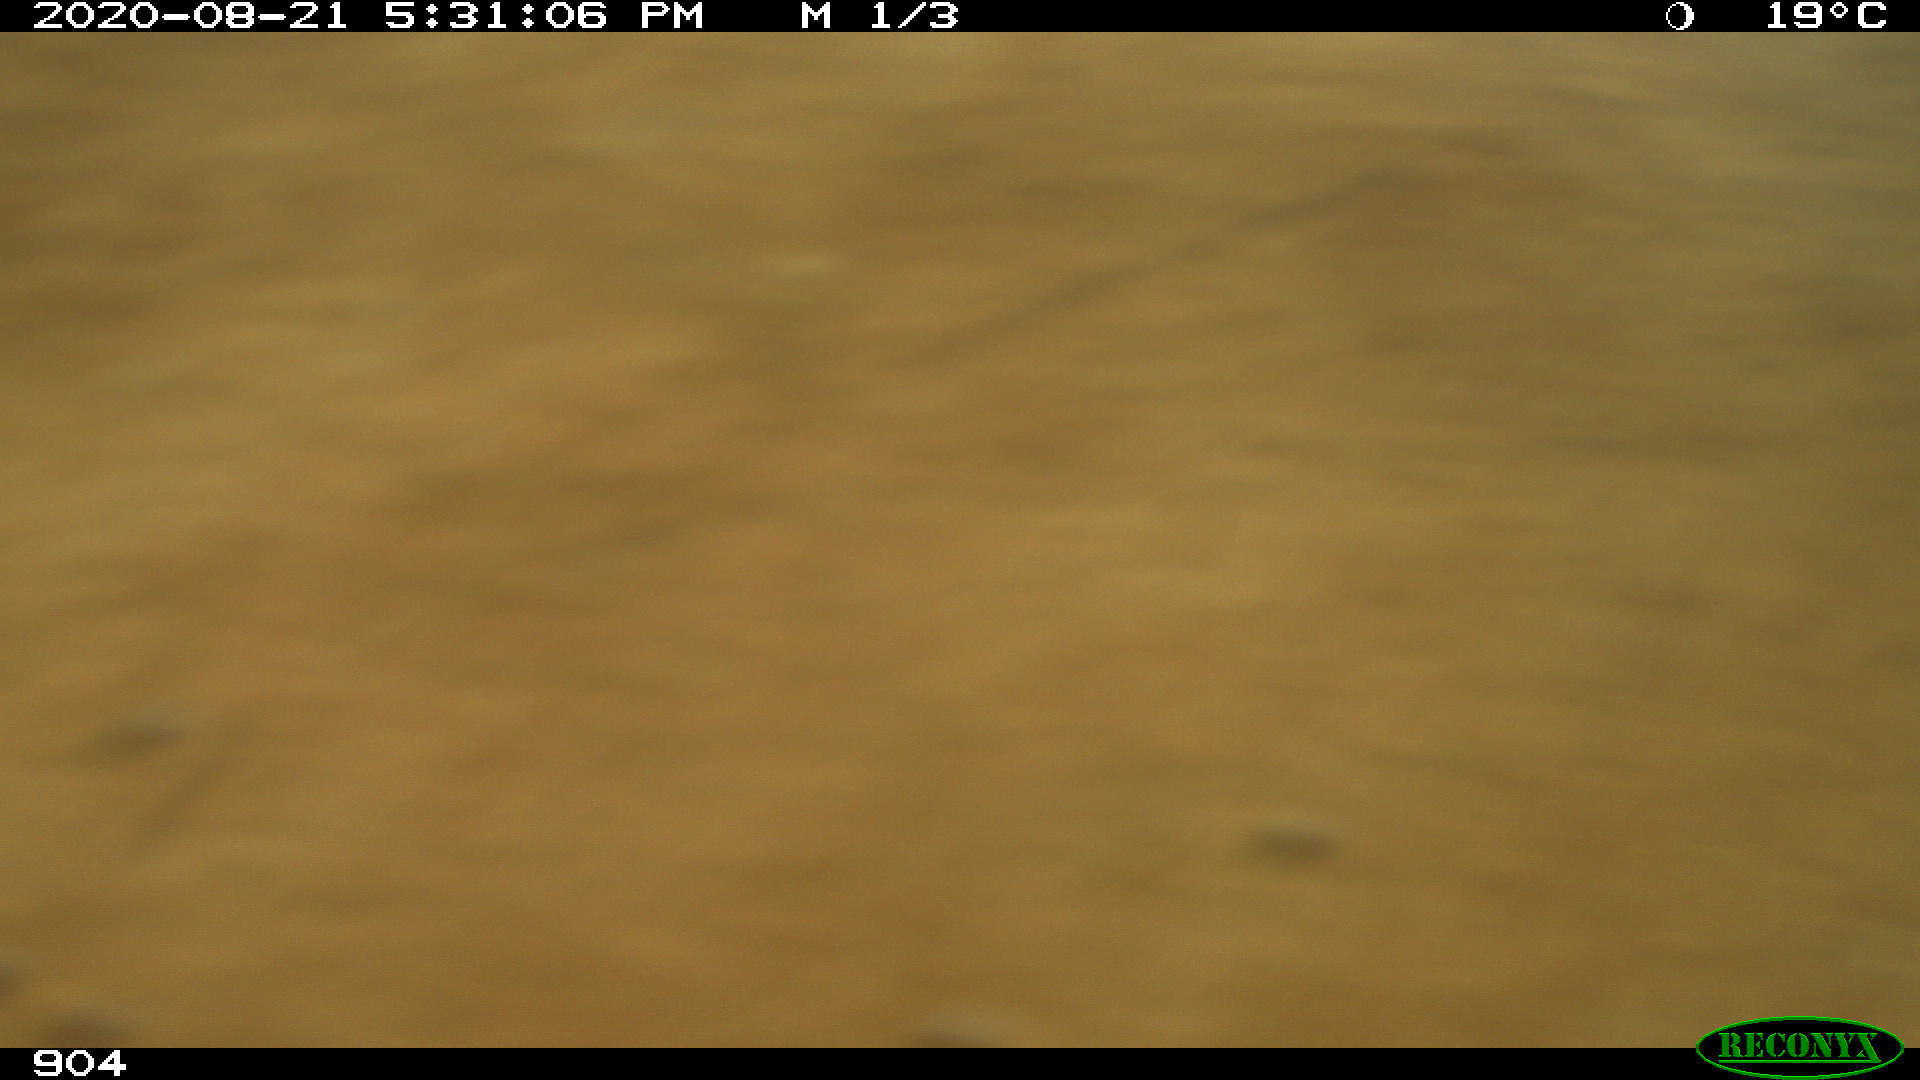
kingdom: Animalia
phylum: Chordata
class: Mammalia
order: Artiodactyla
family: Bovidae
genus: Bos
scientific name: Bos taurus
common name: Domesticated cattle
